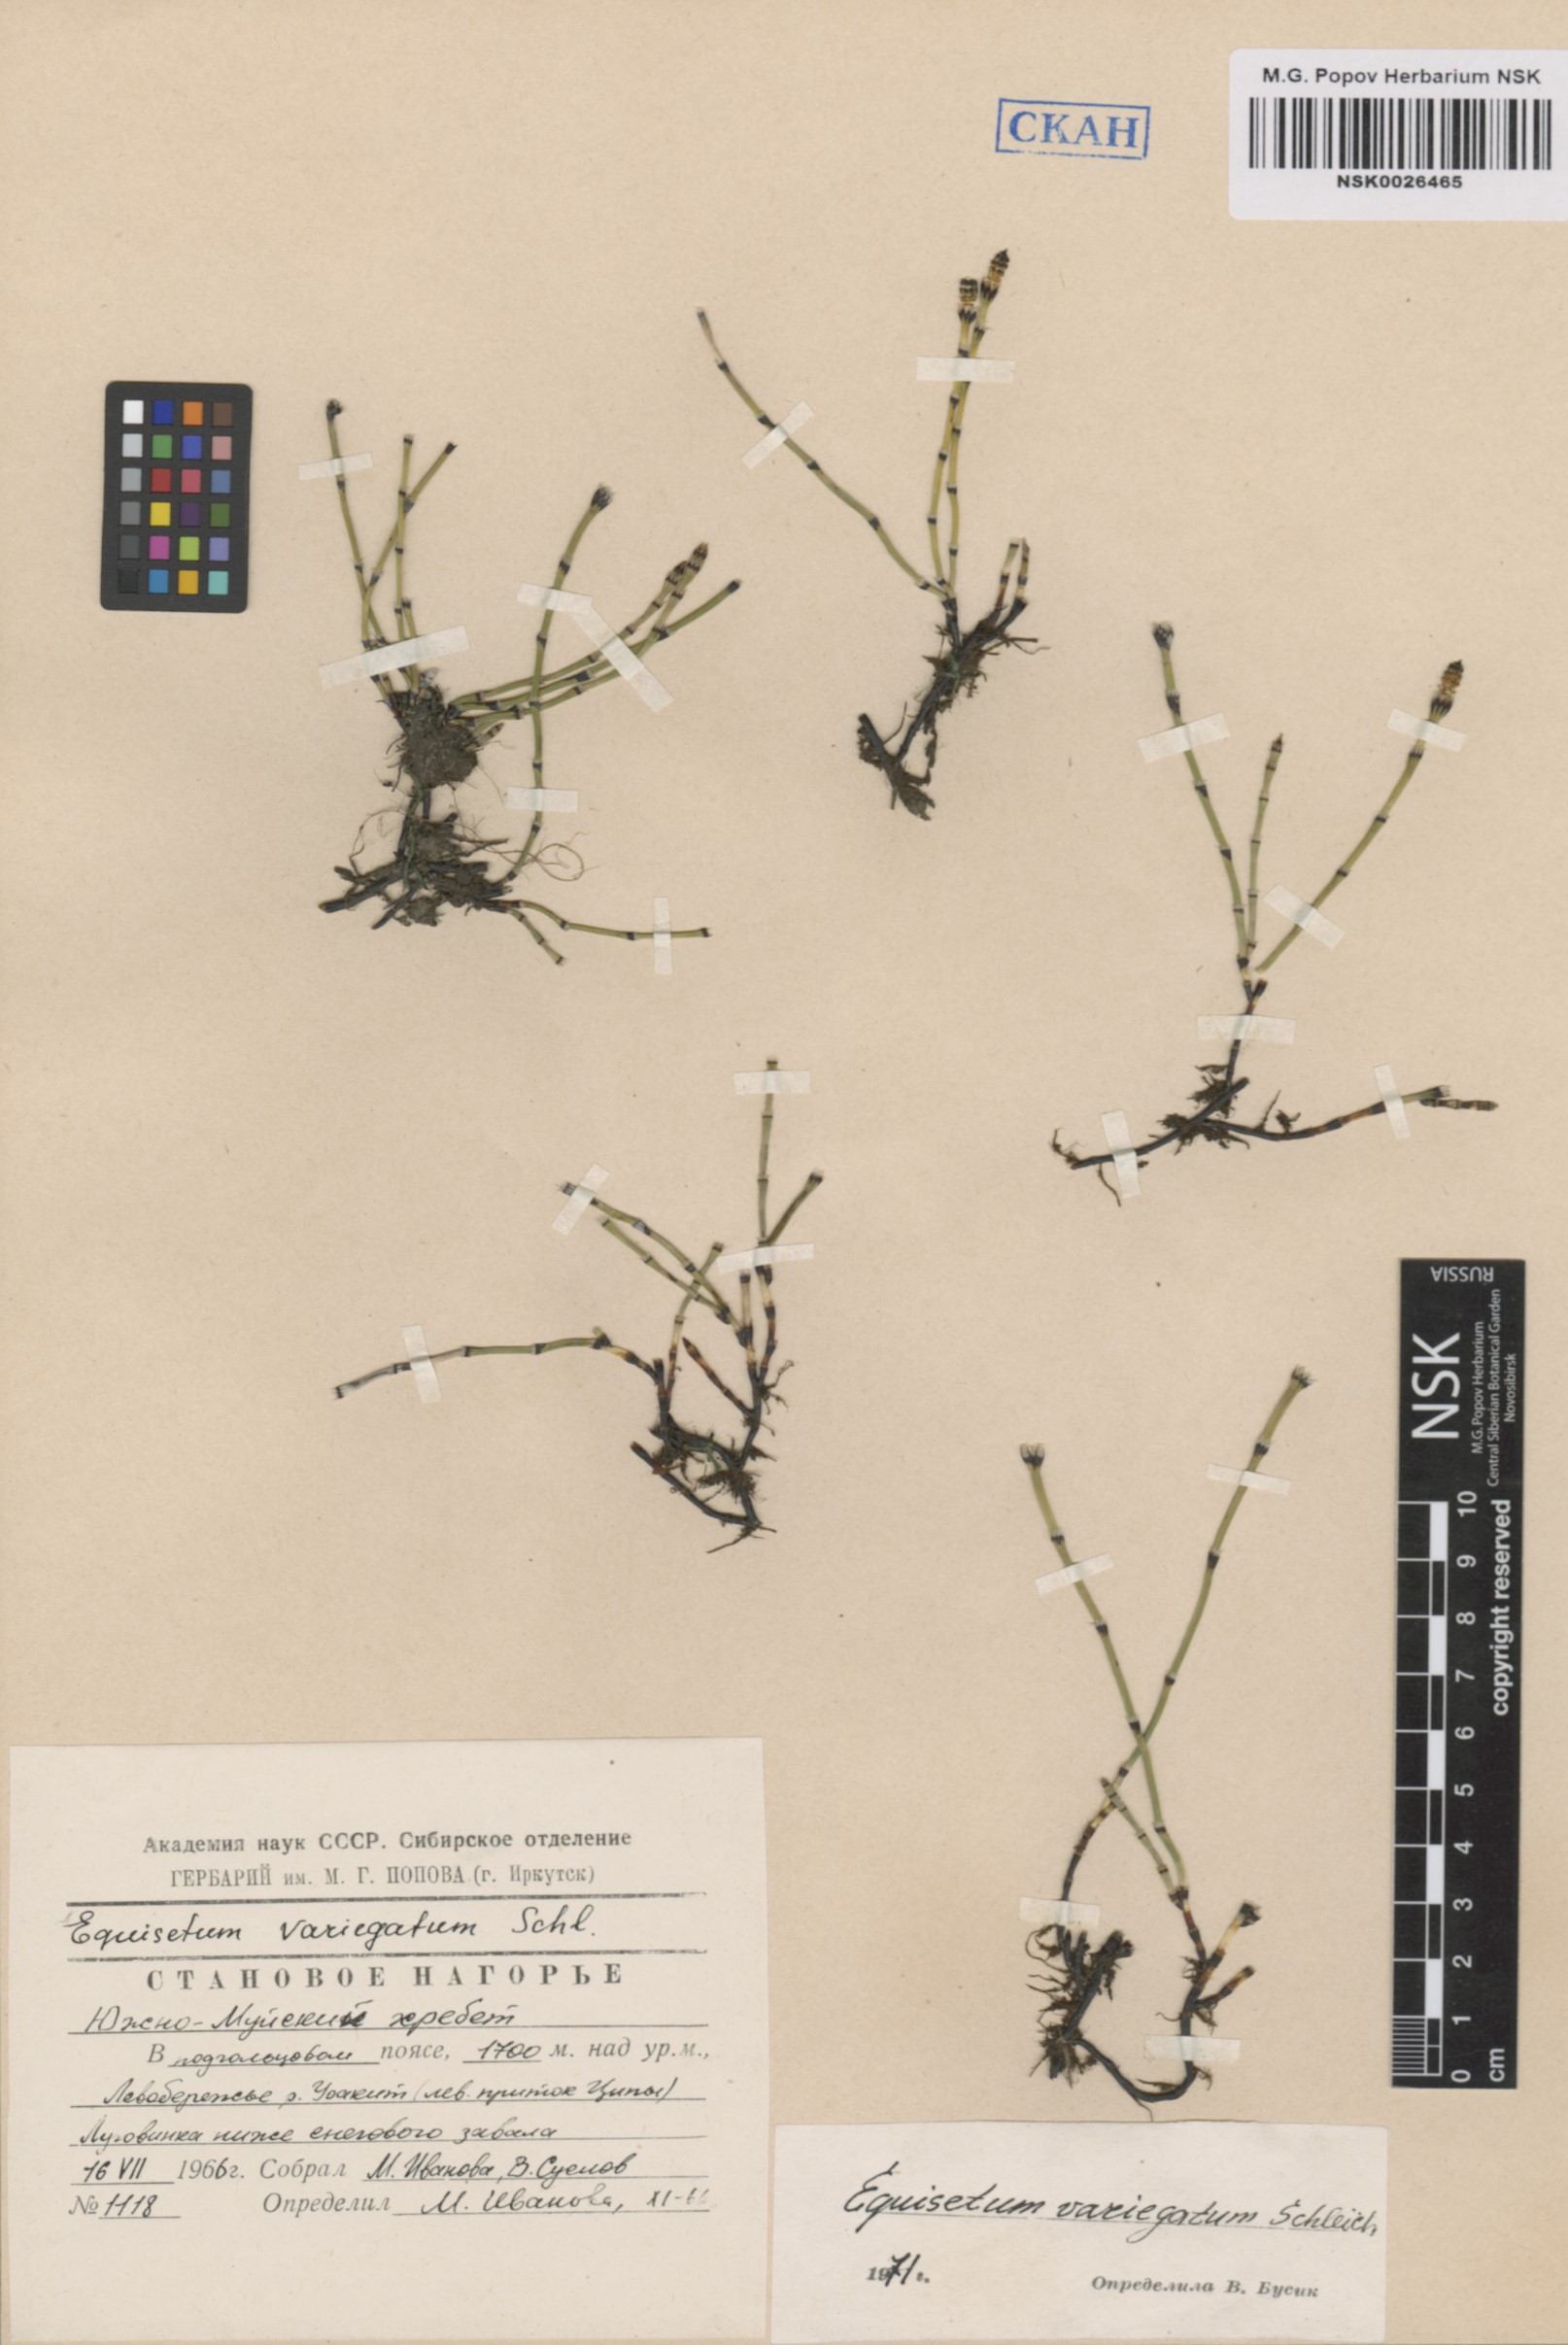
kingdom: Plantae
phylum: Tracheophyta
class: Polypodiopsida
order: Equisetales
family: Equisetaceae
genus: Equisetum
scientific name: Equisetum variegatum
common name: Variegated horsetail
